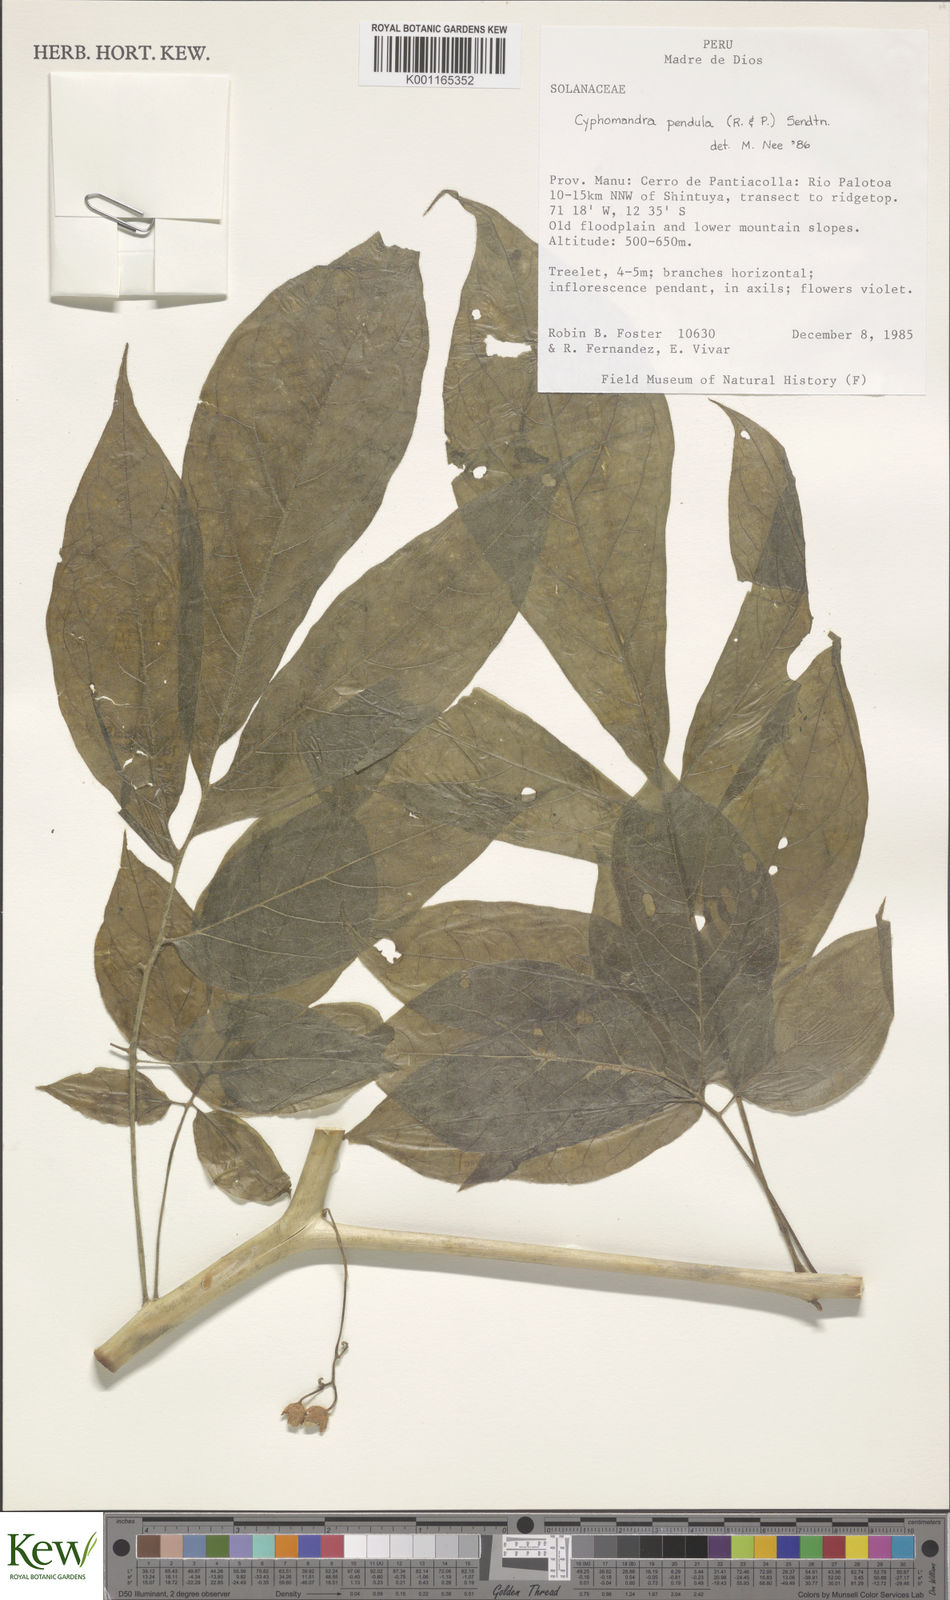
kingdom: Plantae
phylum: Tracheophyta
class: Magnoliopsida
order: Solanales
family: Solanaceae
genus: Solanum
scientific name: Solanum pendulum
